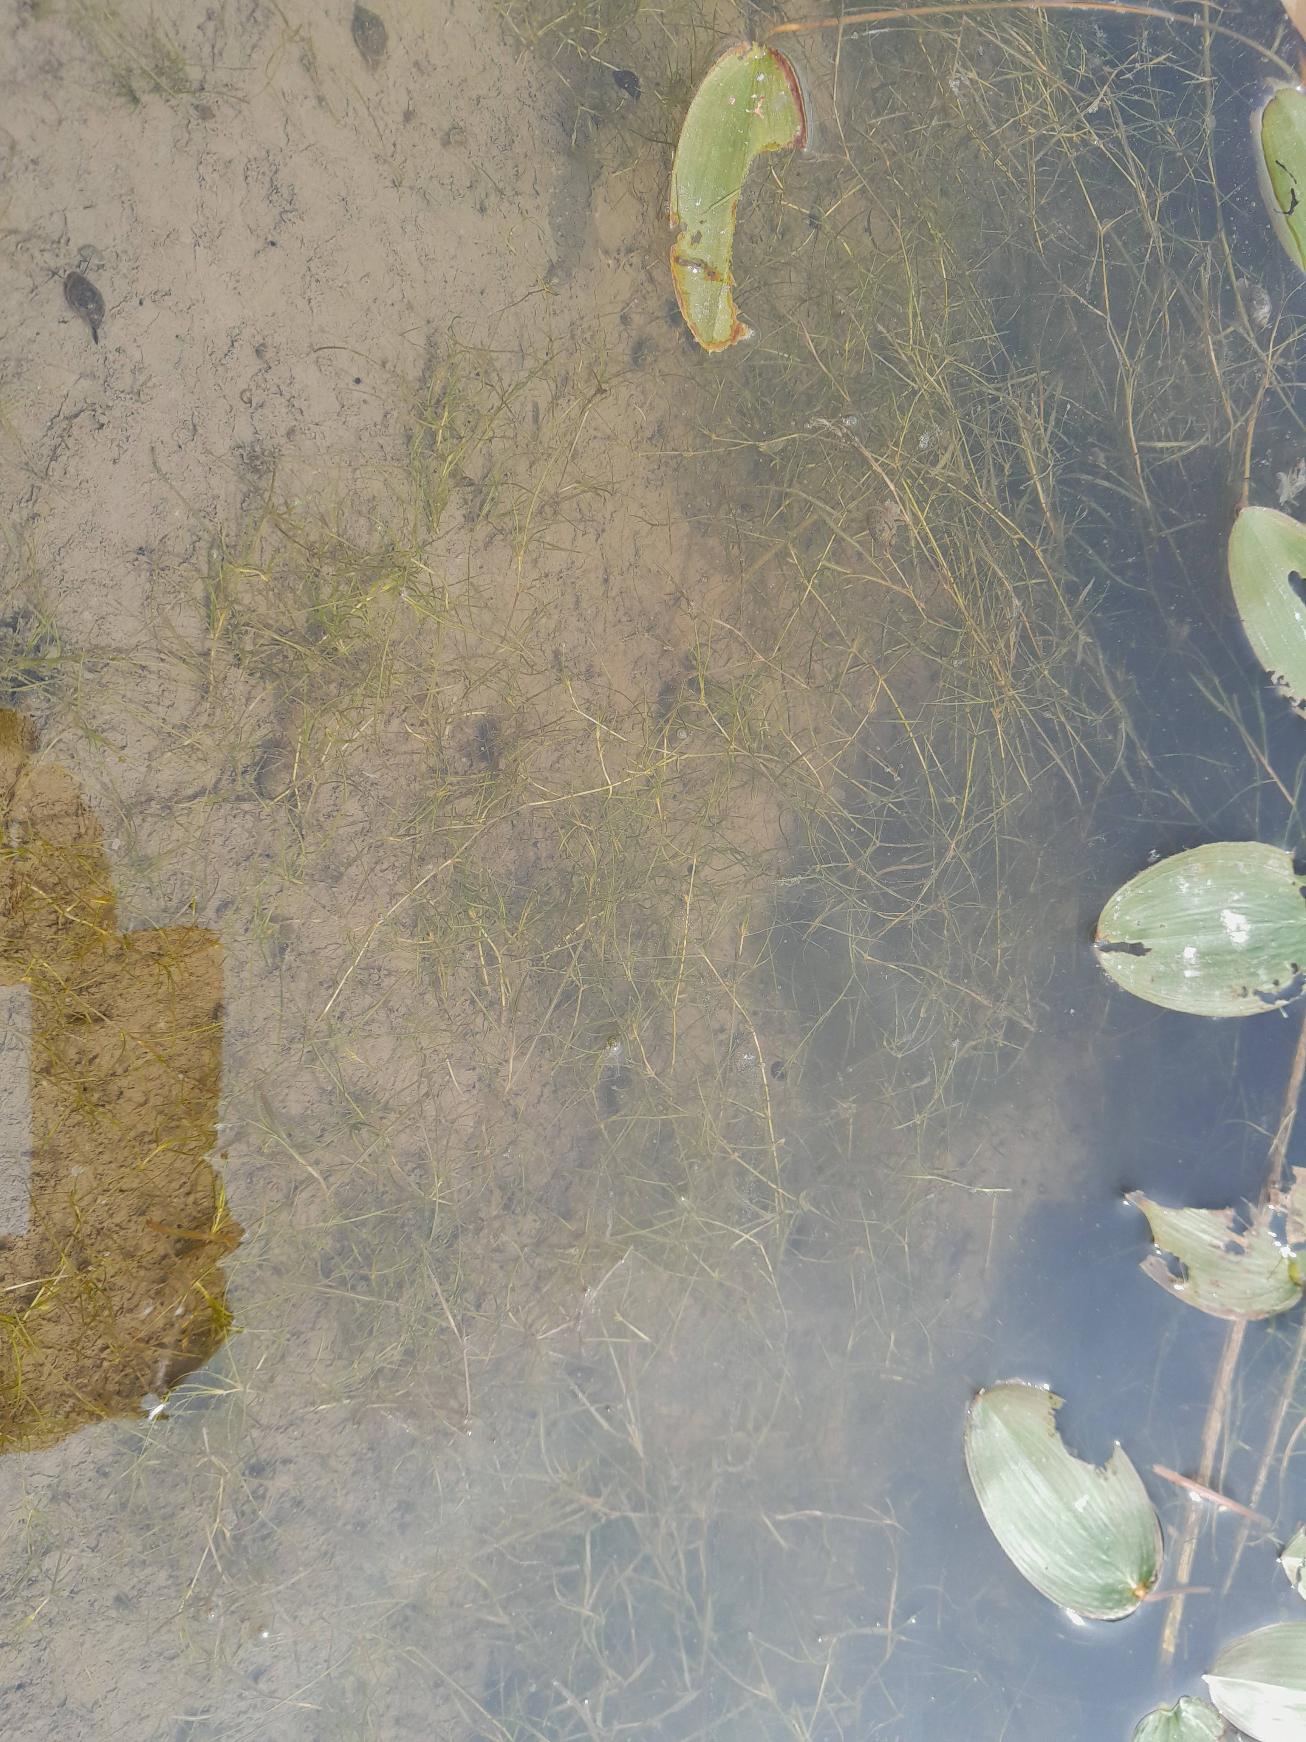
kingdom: Plantae
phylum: Tracheophyta
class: Liliopsida
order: Alismatales
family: Potamogetonaceae
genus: Zannichellia
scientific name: Zannichellia palustris
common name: Vandkrans
